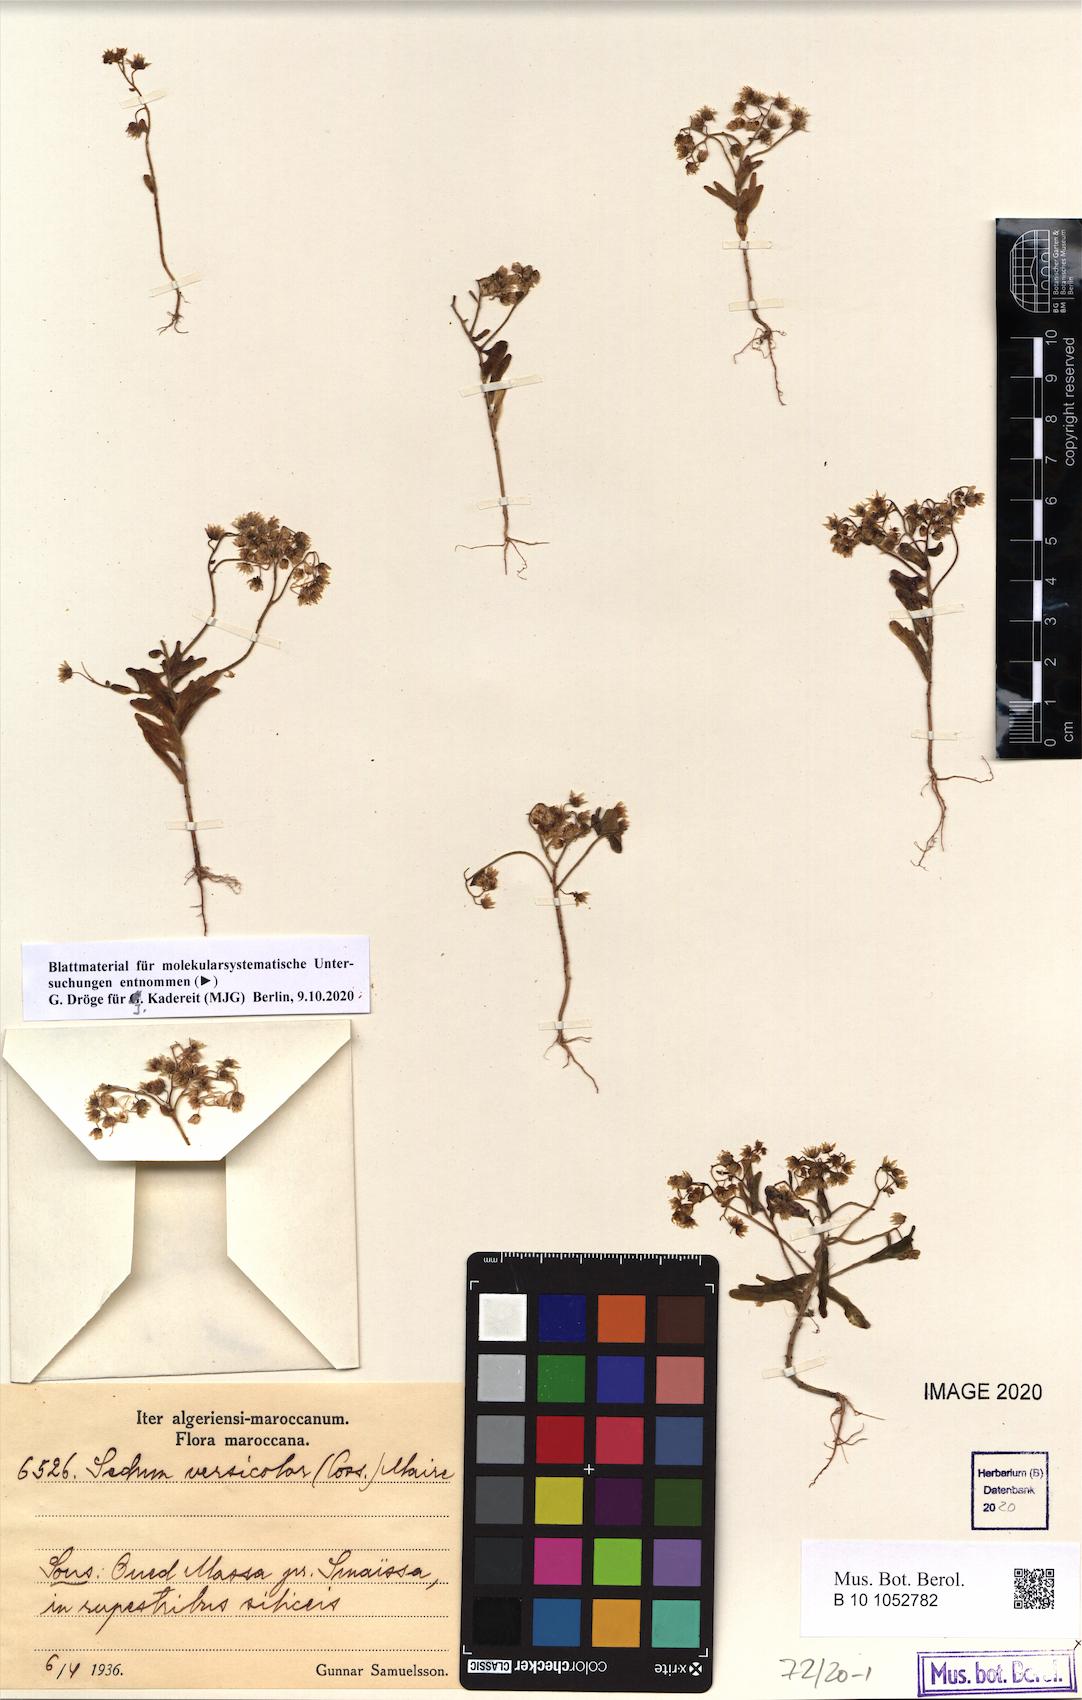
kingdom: Plantae
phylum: Tracheophyta
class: Magnoliopsida
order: Saxifragales
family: Crassulaceae
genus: Sedum
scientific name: Sedum versicolor
